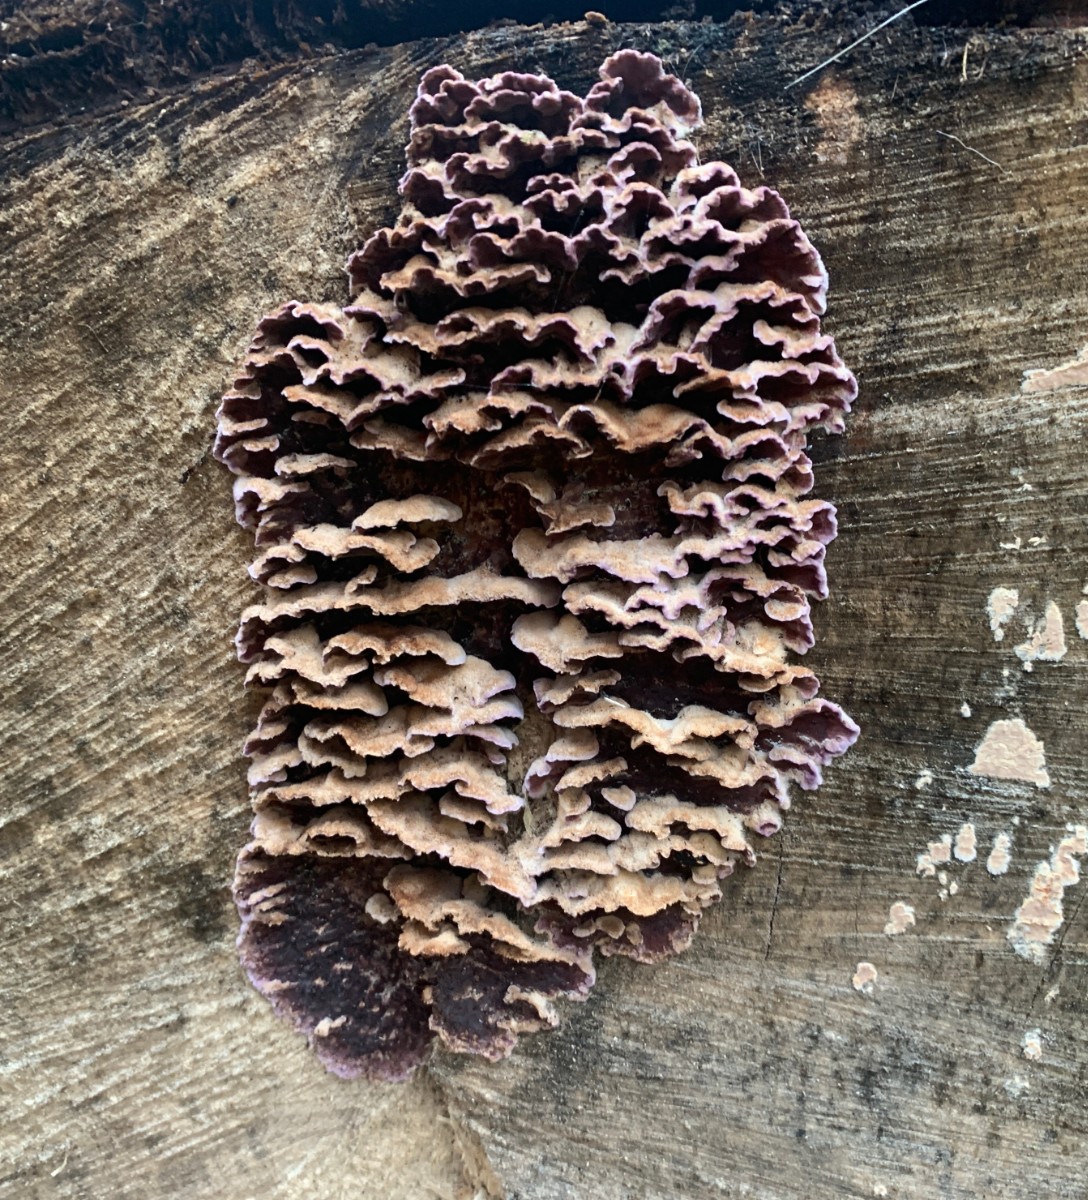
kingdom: Fungi
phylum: Basidiomycota
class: Agaricomycetes
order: Agaricales
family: Cyphellaceae
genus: Chondrostereum
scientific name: Chondrostereum purpureum
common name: purpurlædersvamp
